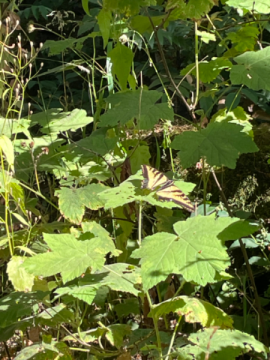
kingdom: Animalia
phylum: Arthropoda
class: Insecta
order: Lepidoptera
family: Papilionidae
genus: Papilio
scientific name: Papilio
